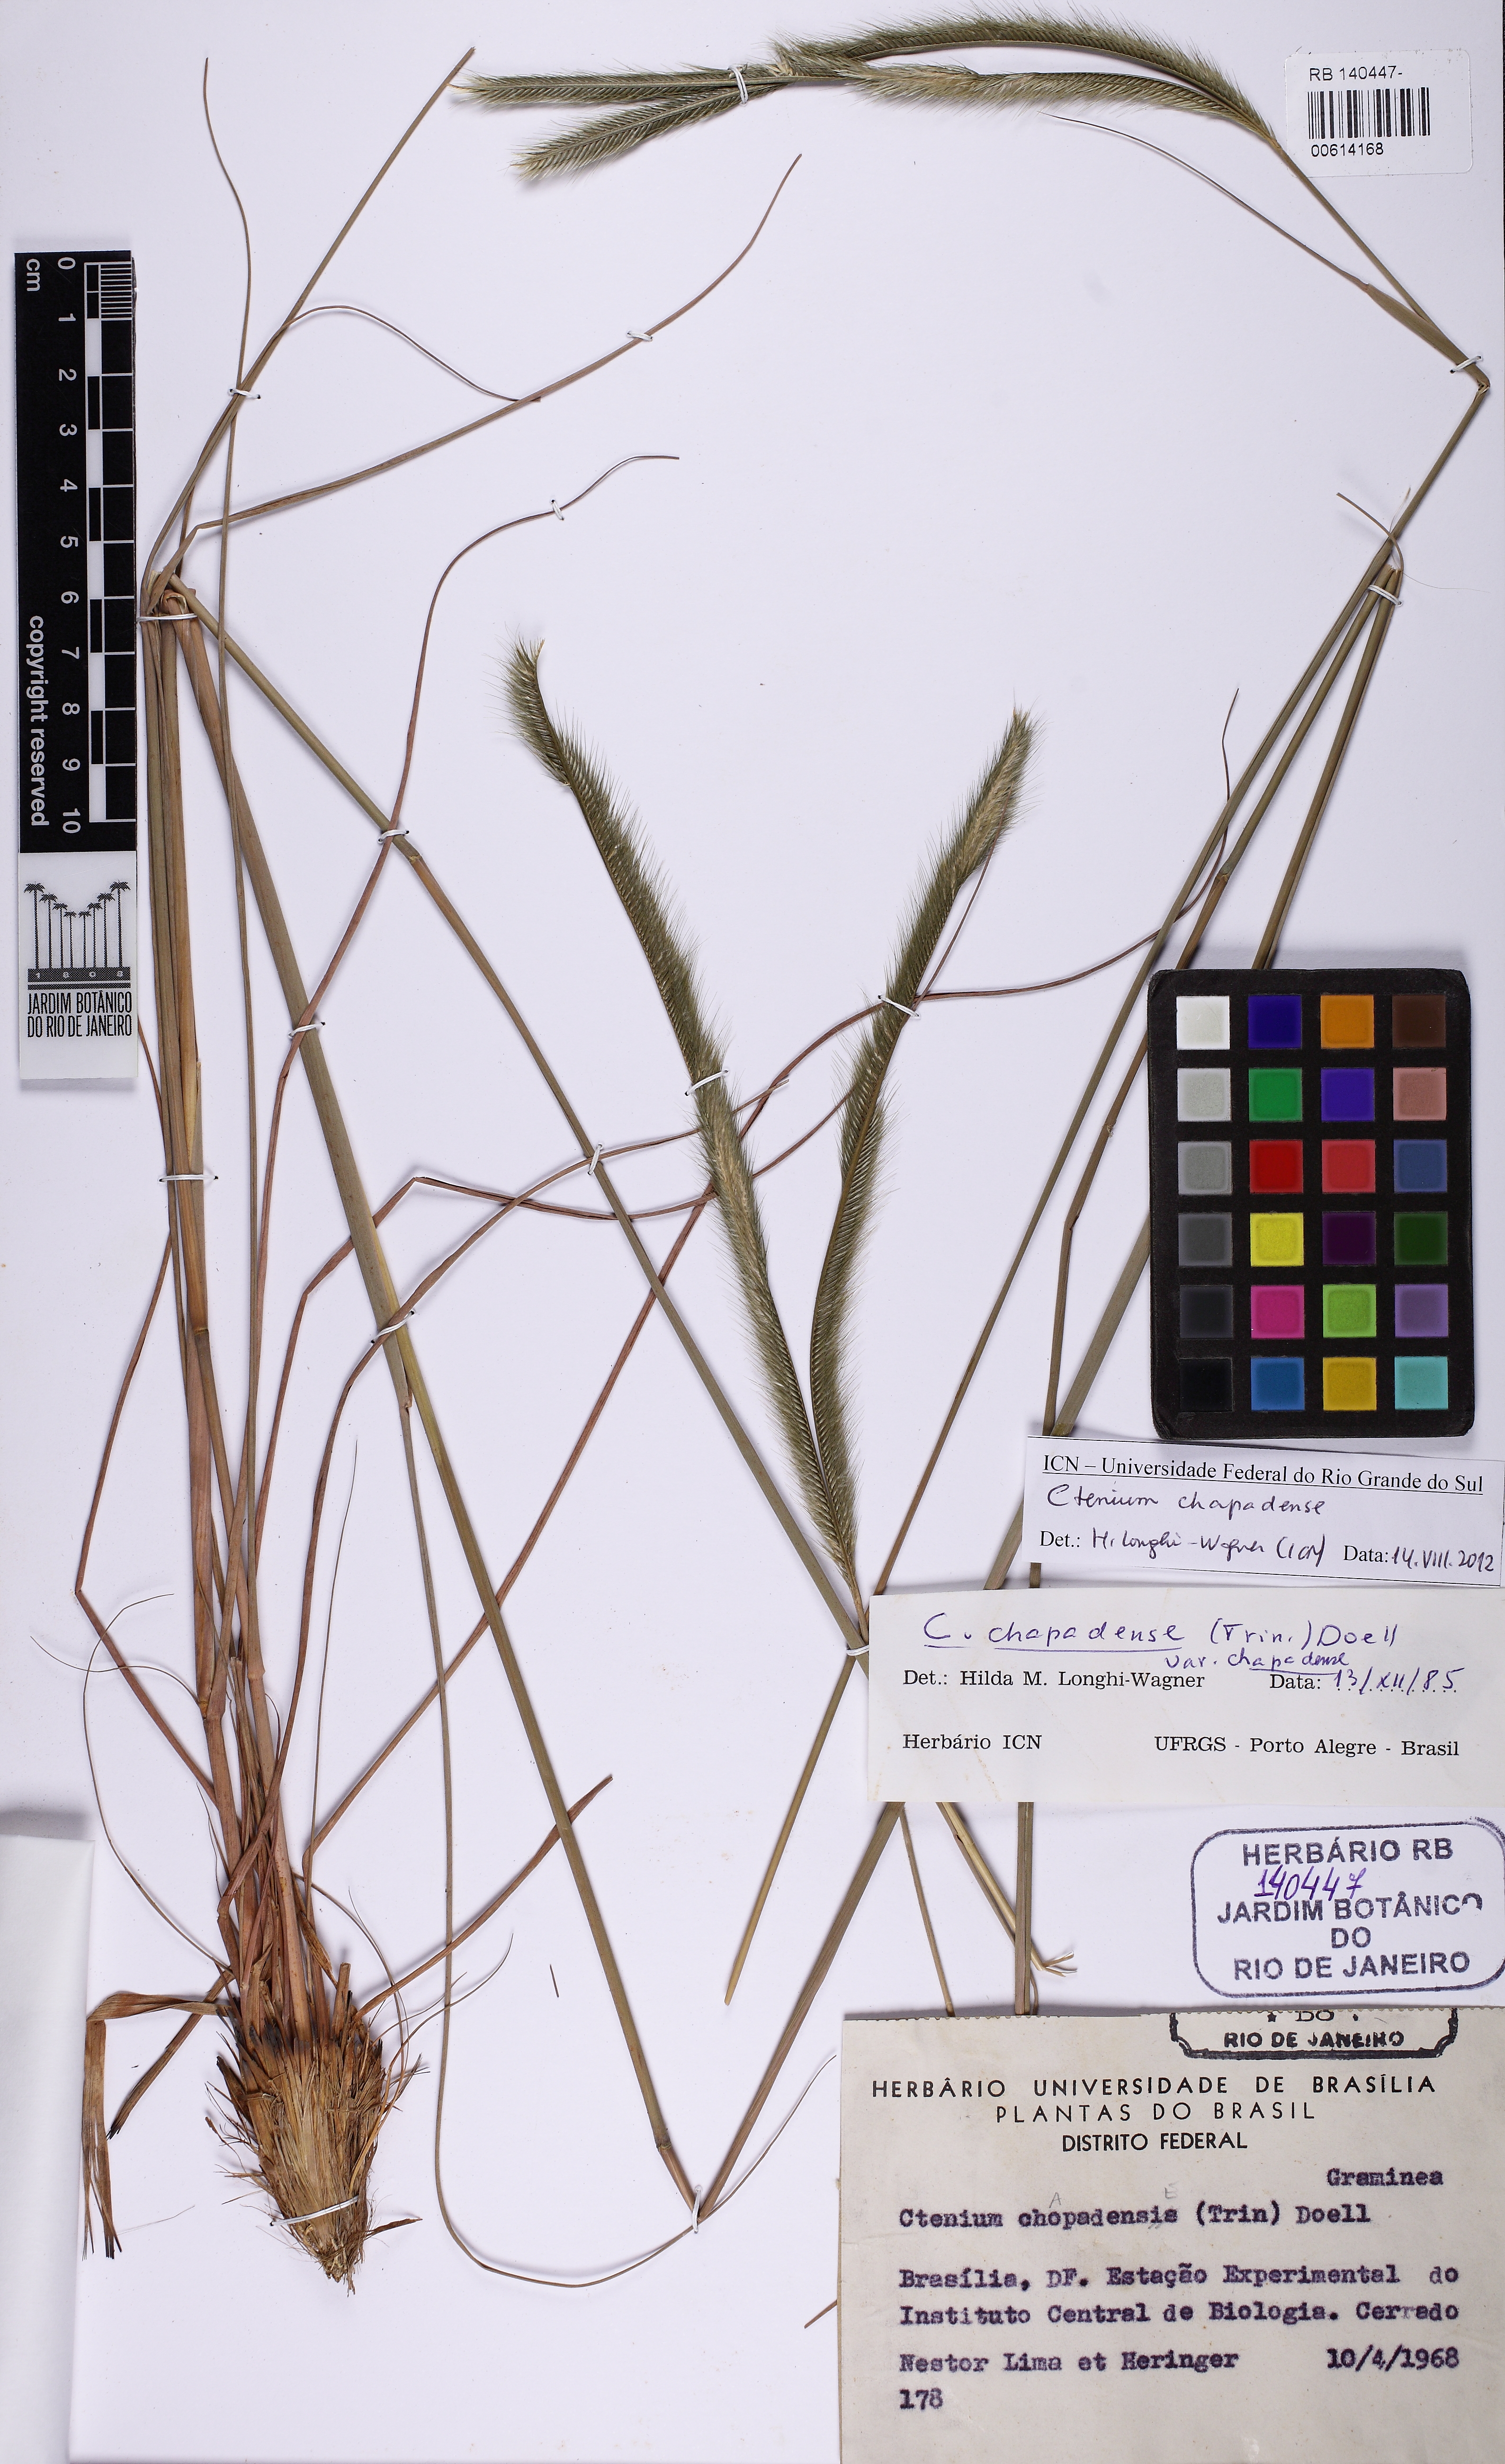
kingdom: Plantae
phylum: Tracheophyta
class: Liliopsida
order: Poales
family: Poaceae
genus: Ctenium
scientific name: Ctenium chapadense
